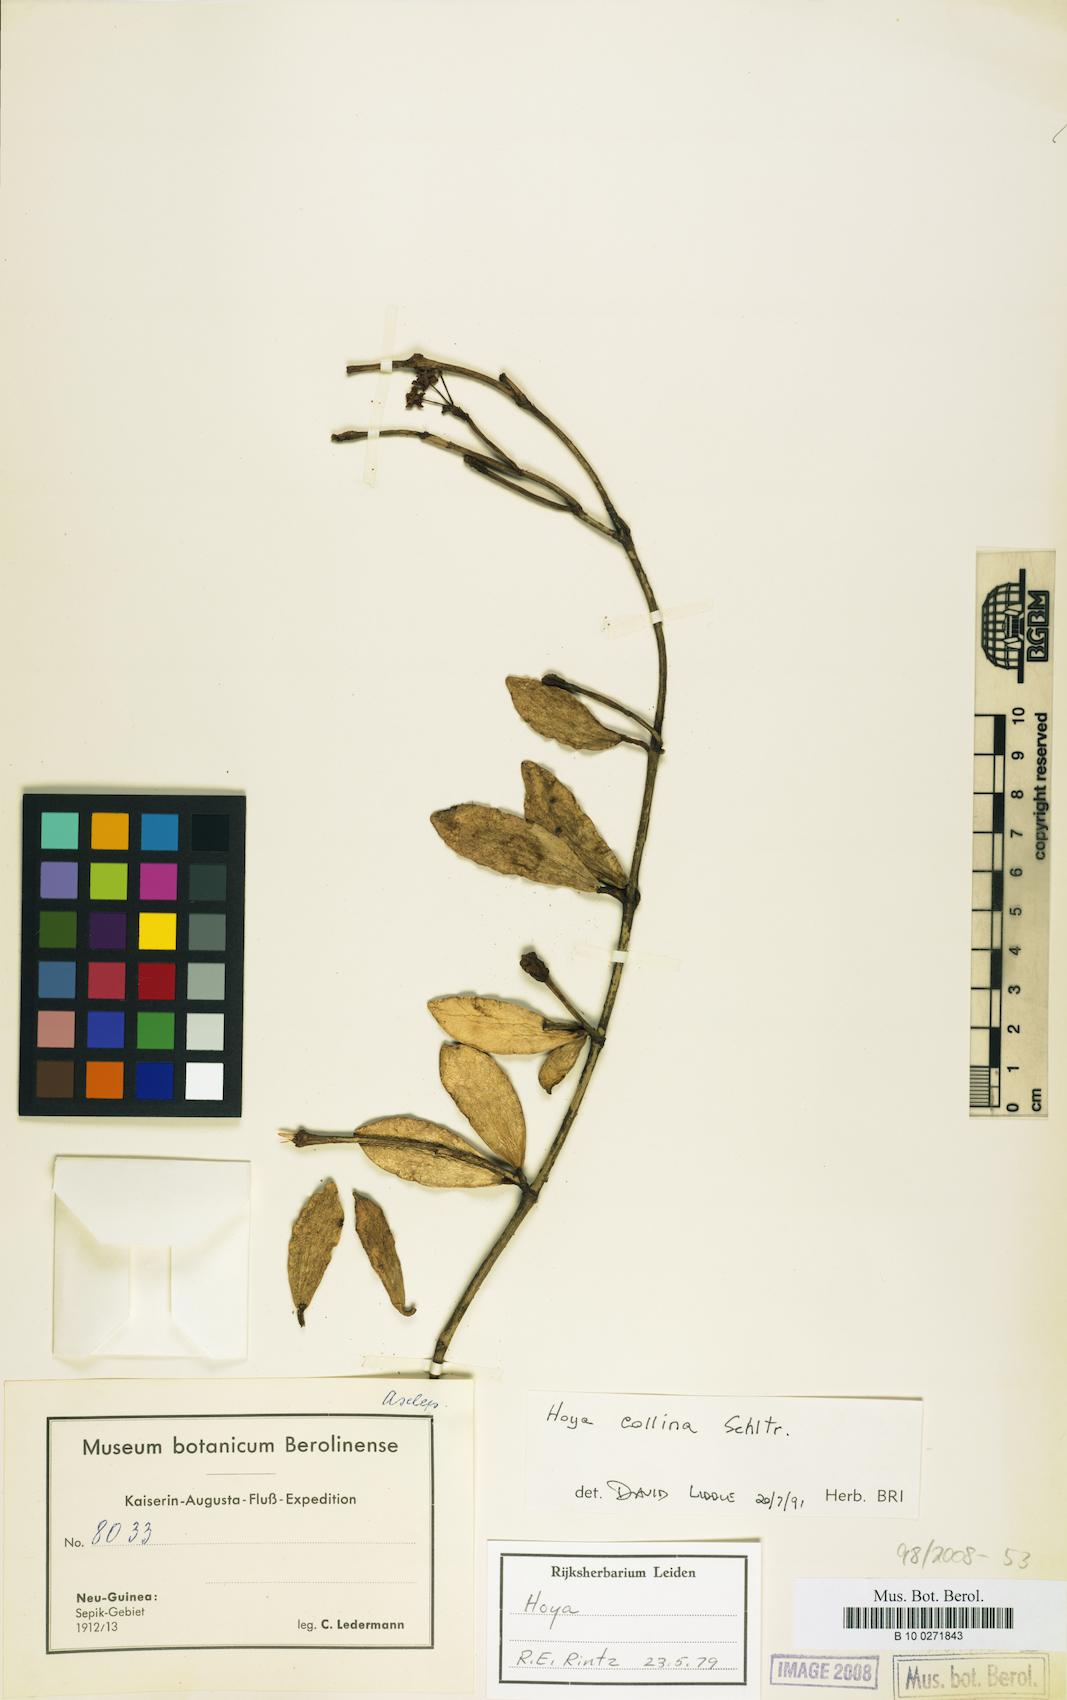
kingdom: Plantae
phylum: Tracheophyta
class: Magnoliopsida
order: Gentianales
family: Apocynaceae
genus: Hoya
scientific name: Hoya collina
